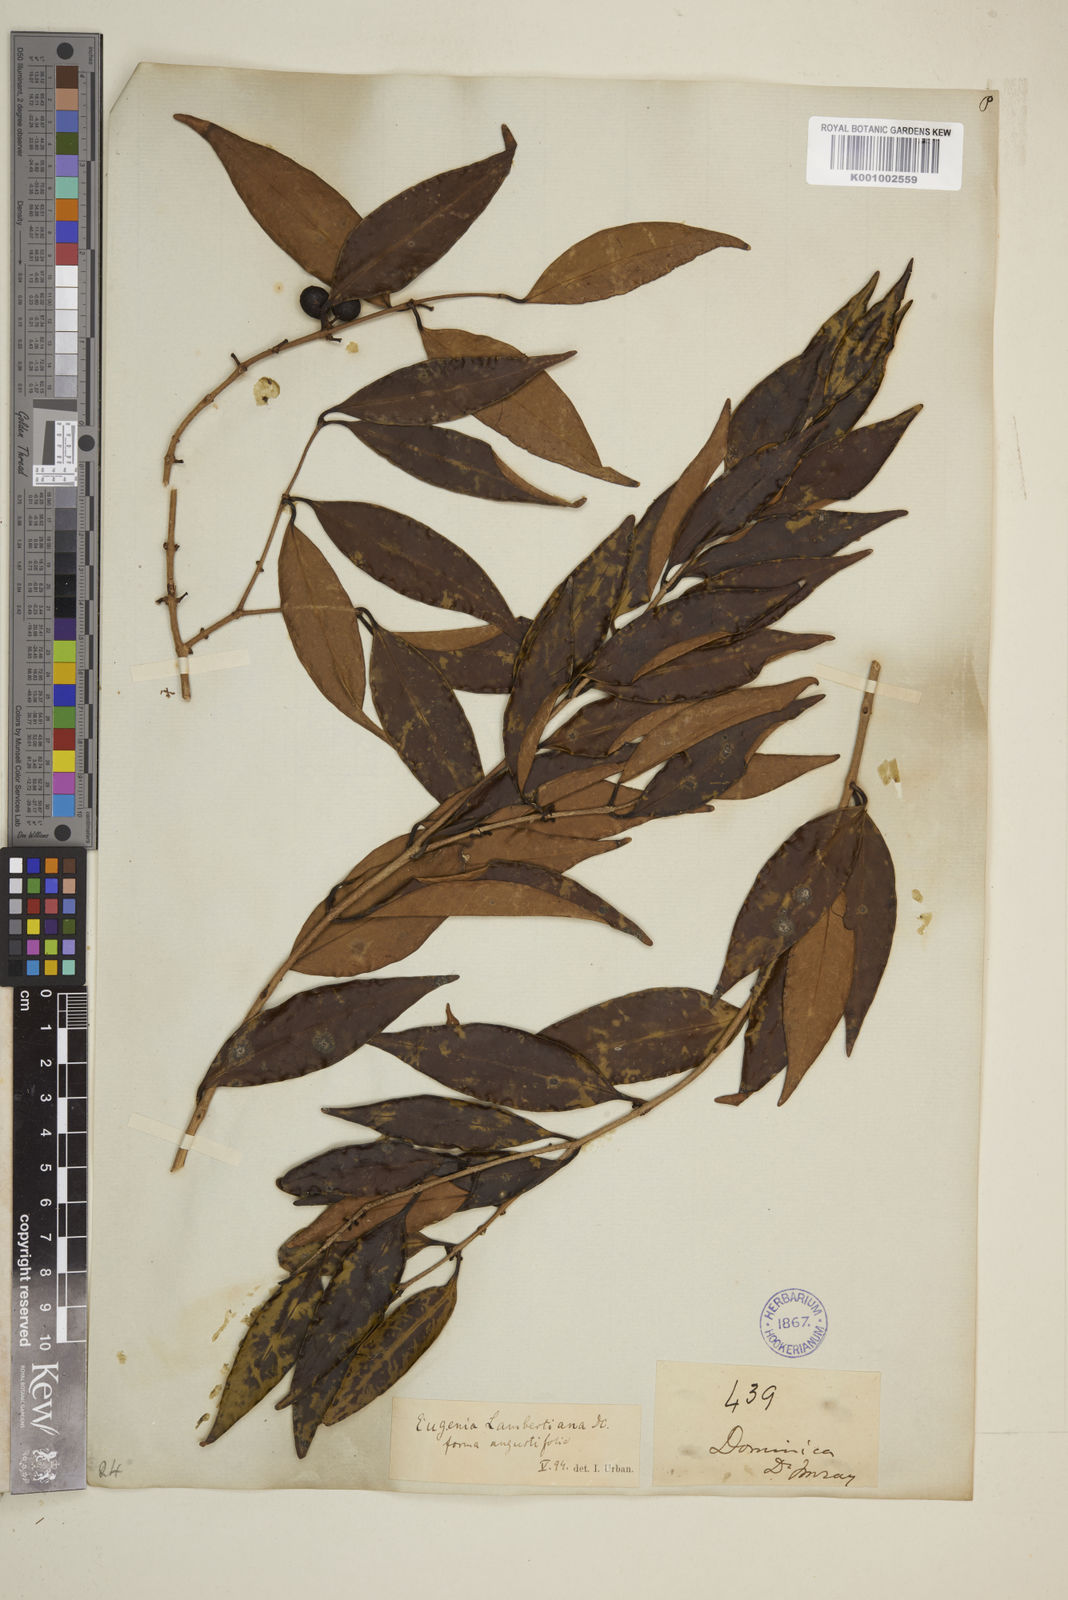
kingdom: Plantae
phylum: Tracheophyta
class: Magnoliopsida
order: Myrtales
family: Myrtaceae
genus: Eugenia
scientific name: Eugenia lambertiana
